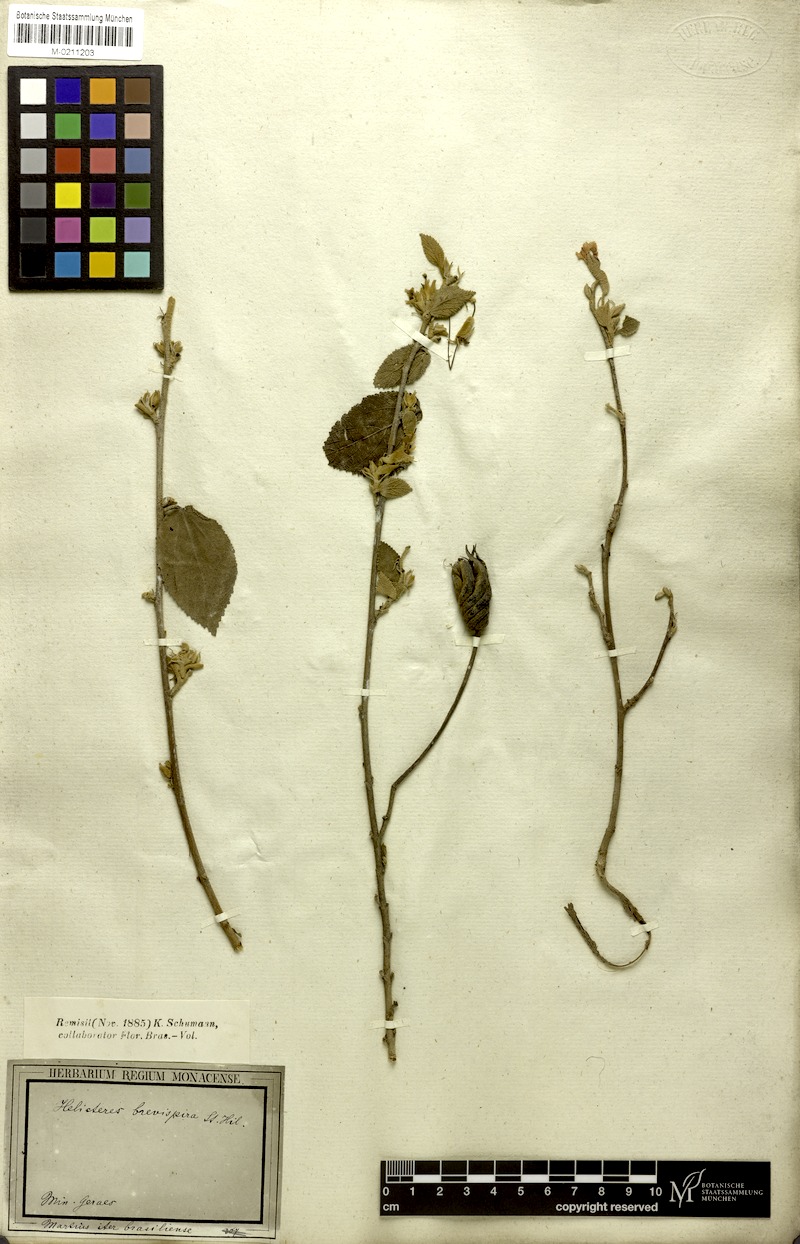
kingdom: Plantae
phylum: Tracheophyta
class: Magnoliopsida
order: Malvales
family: Malvaceae
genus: Helicteres
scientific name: Helicteres brevispira
